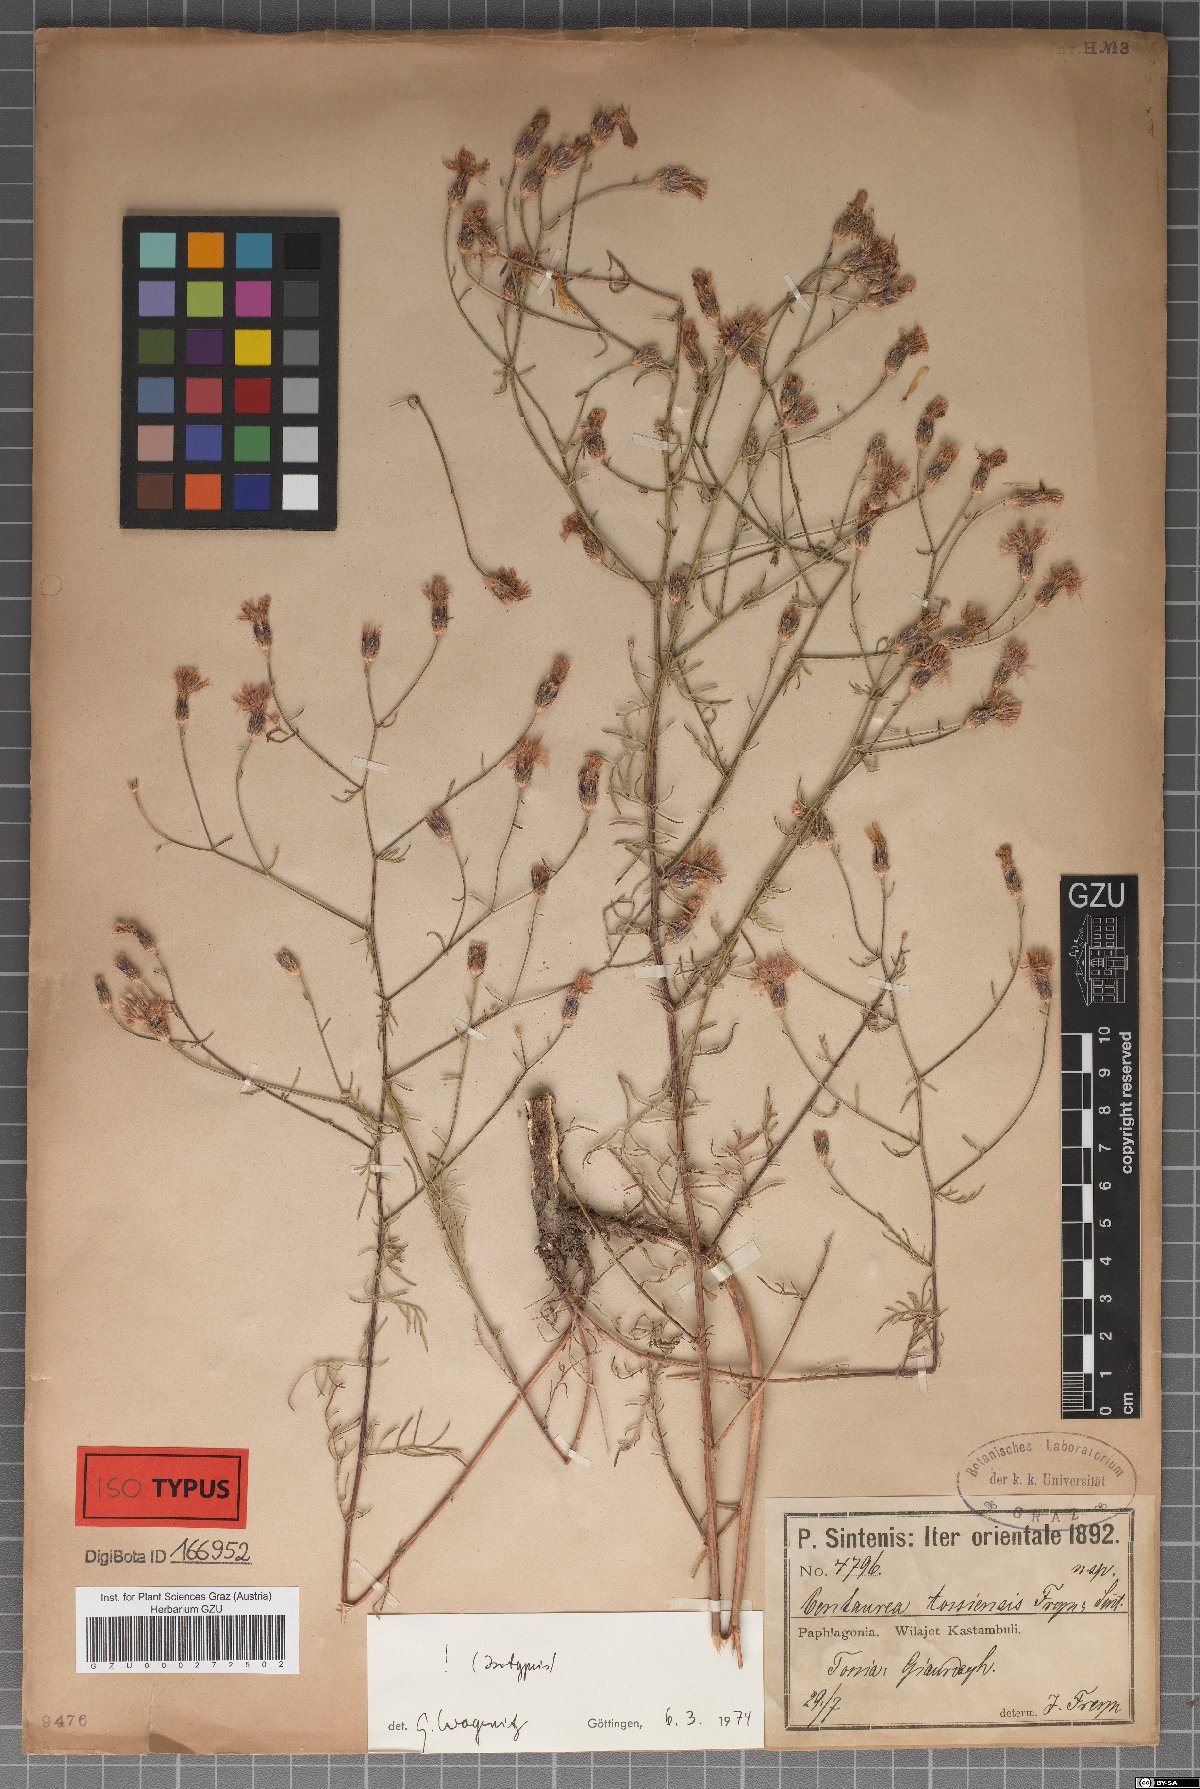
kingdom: Plantae
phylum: Tracheophyta
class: Magnoliopsida
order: Asterales
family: Asteraceae
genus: Centaurea
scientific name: Centaurea tossiensis
